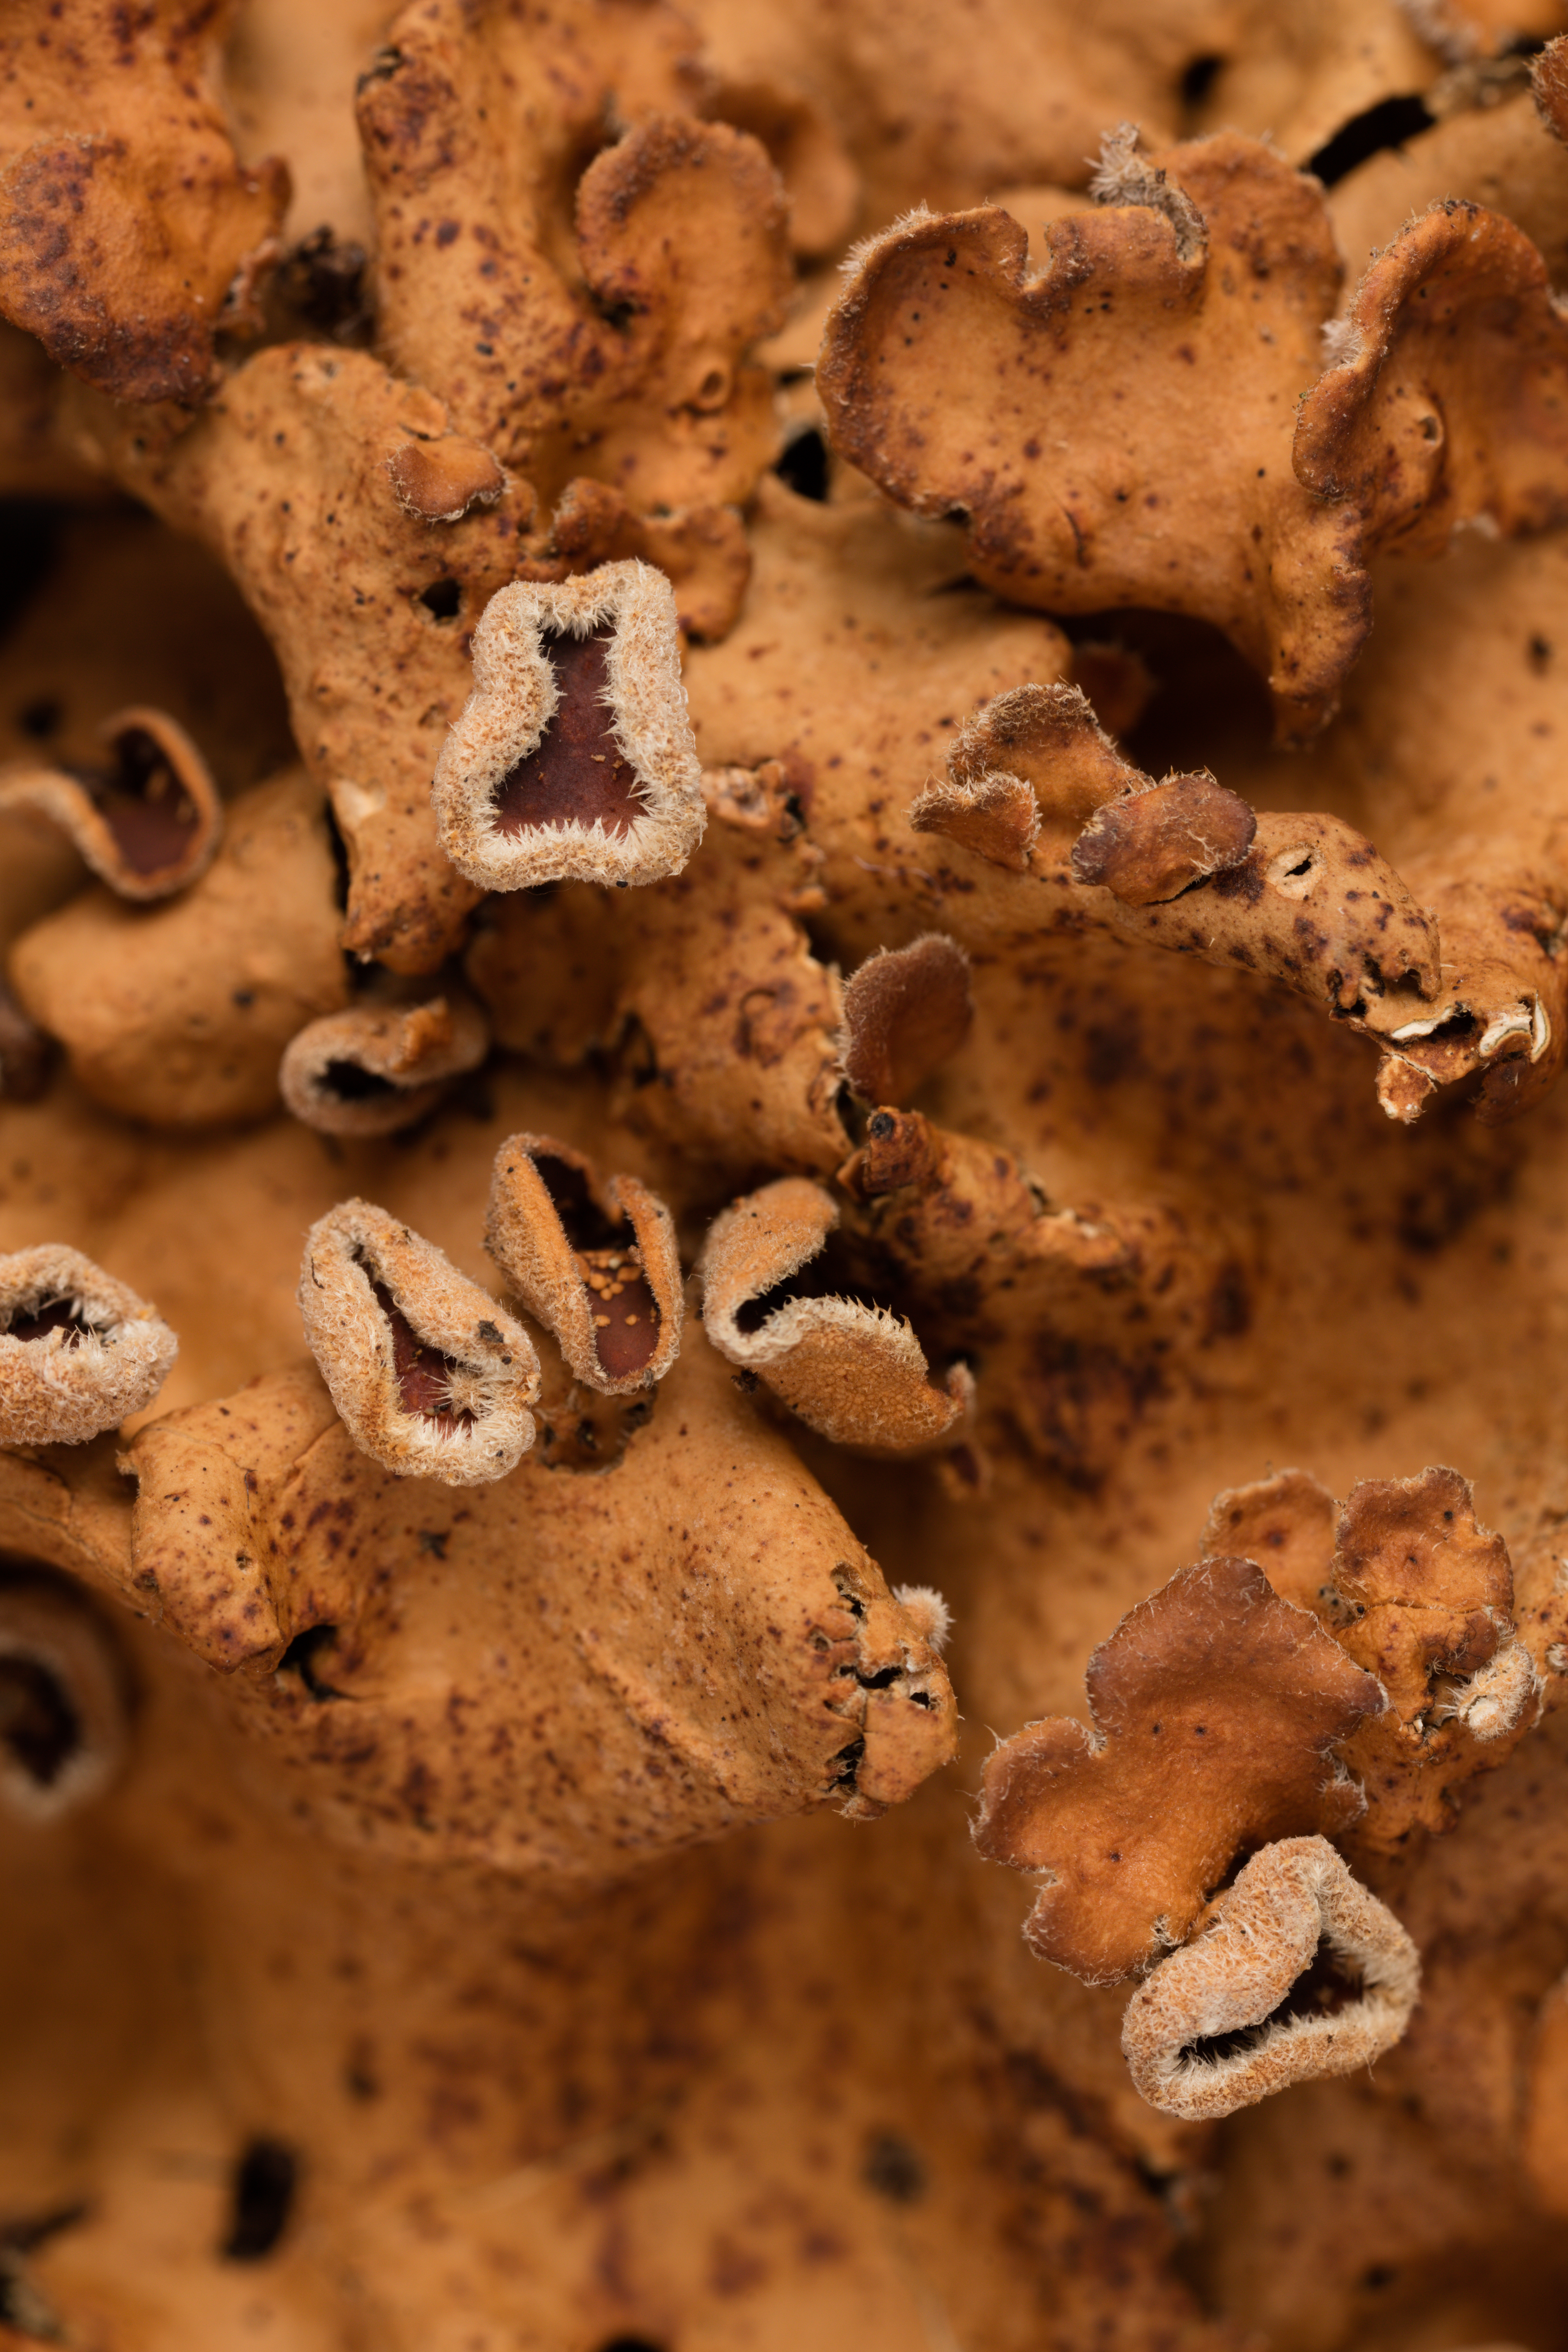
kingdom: Fungi
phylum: Ascomycota
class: Lecanoromycetes
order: Peltigerales
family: Lobariaceae
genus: Pseudocyphellaria
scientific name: Pseudocyphellaria coriacea
